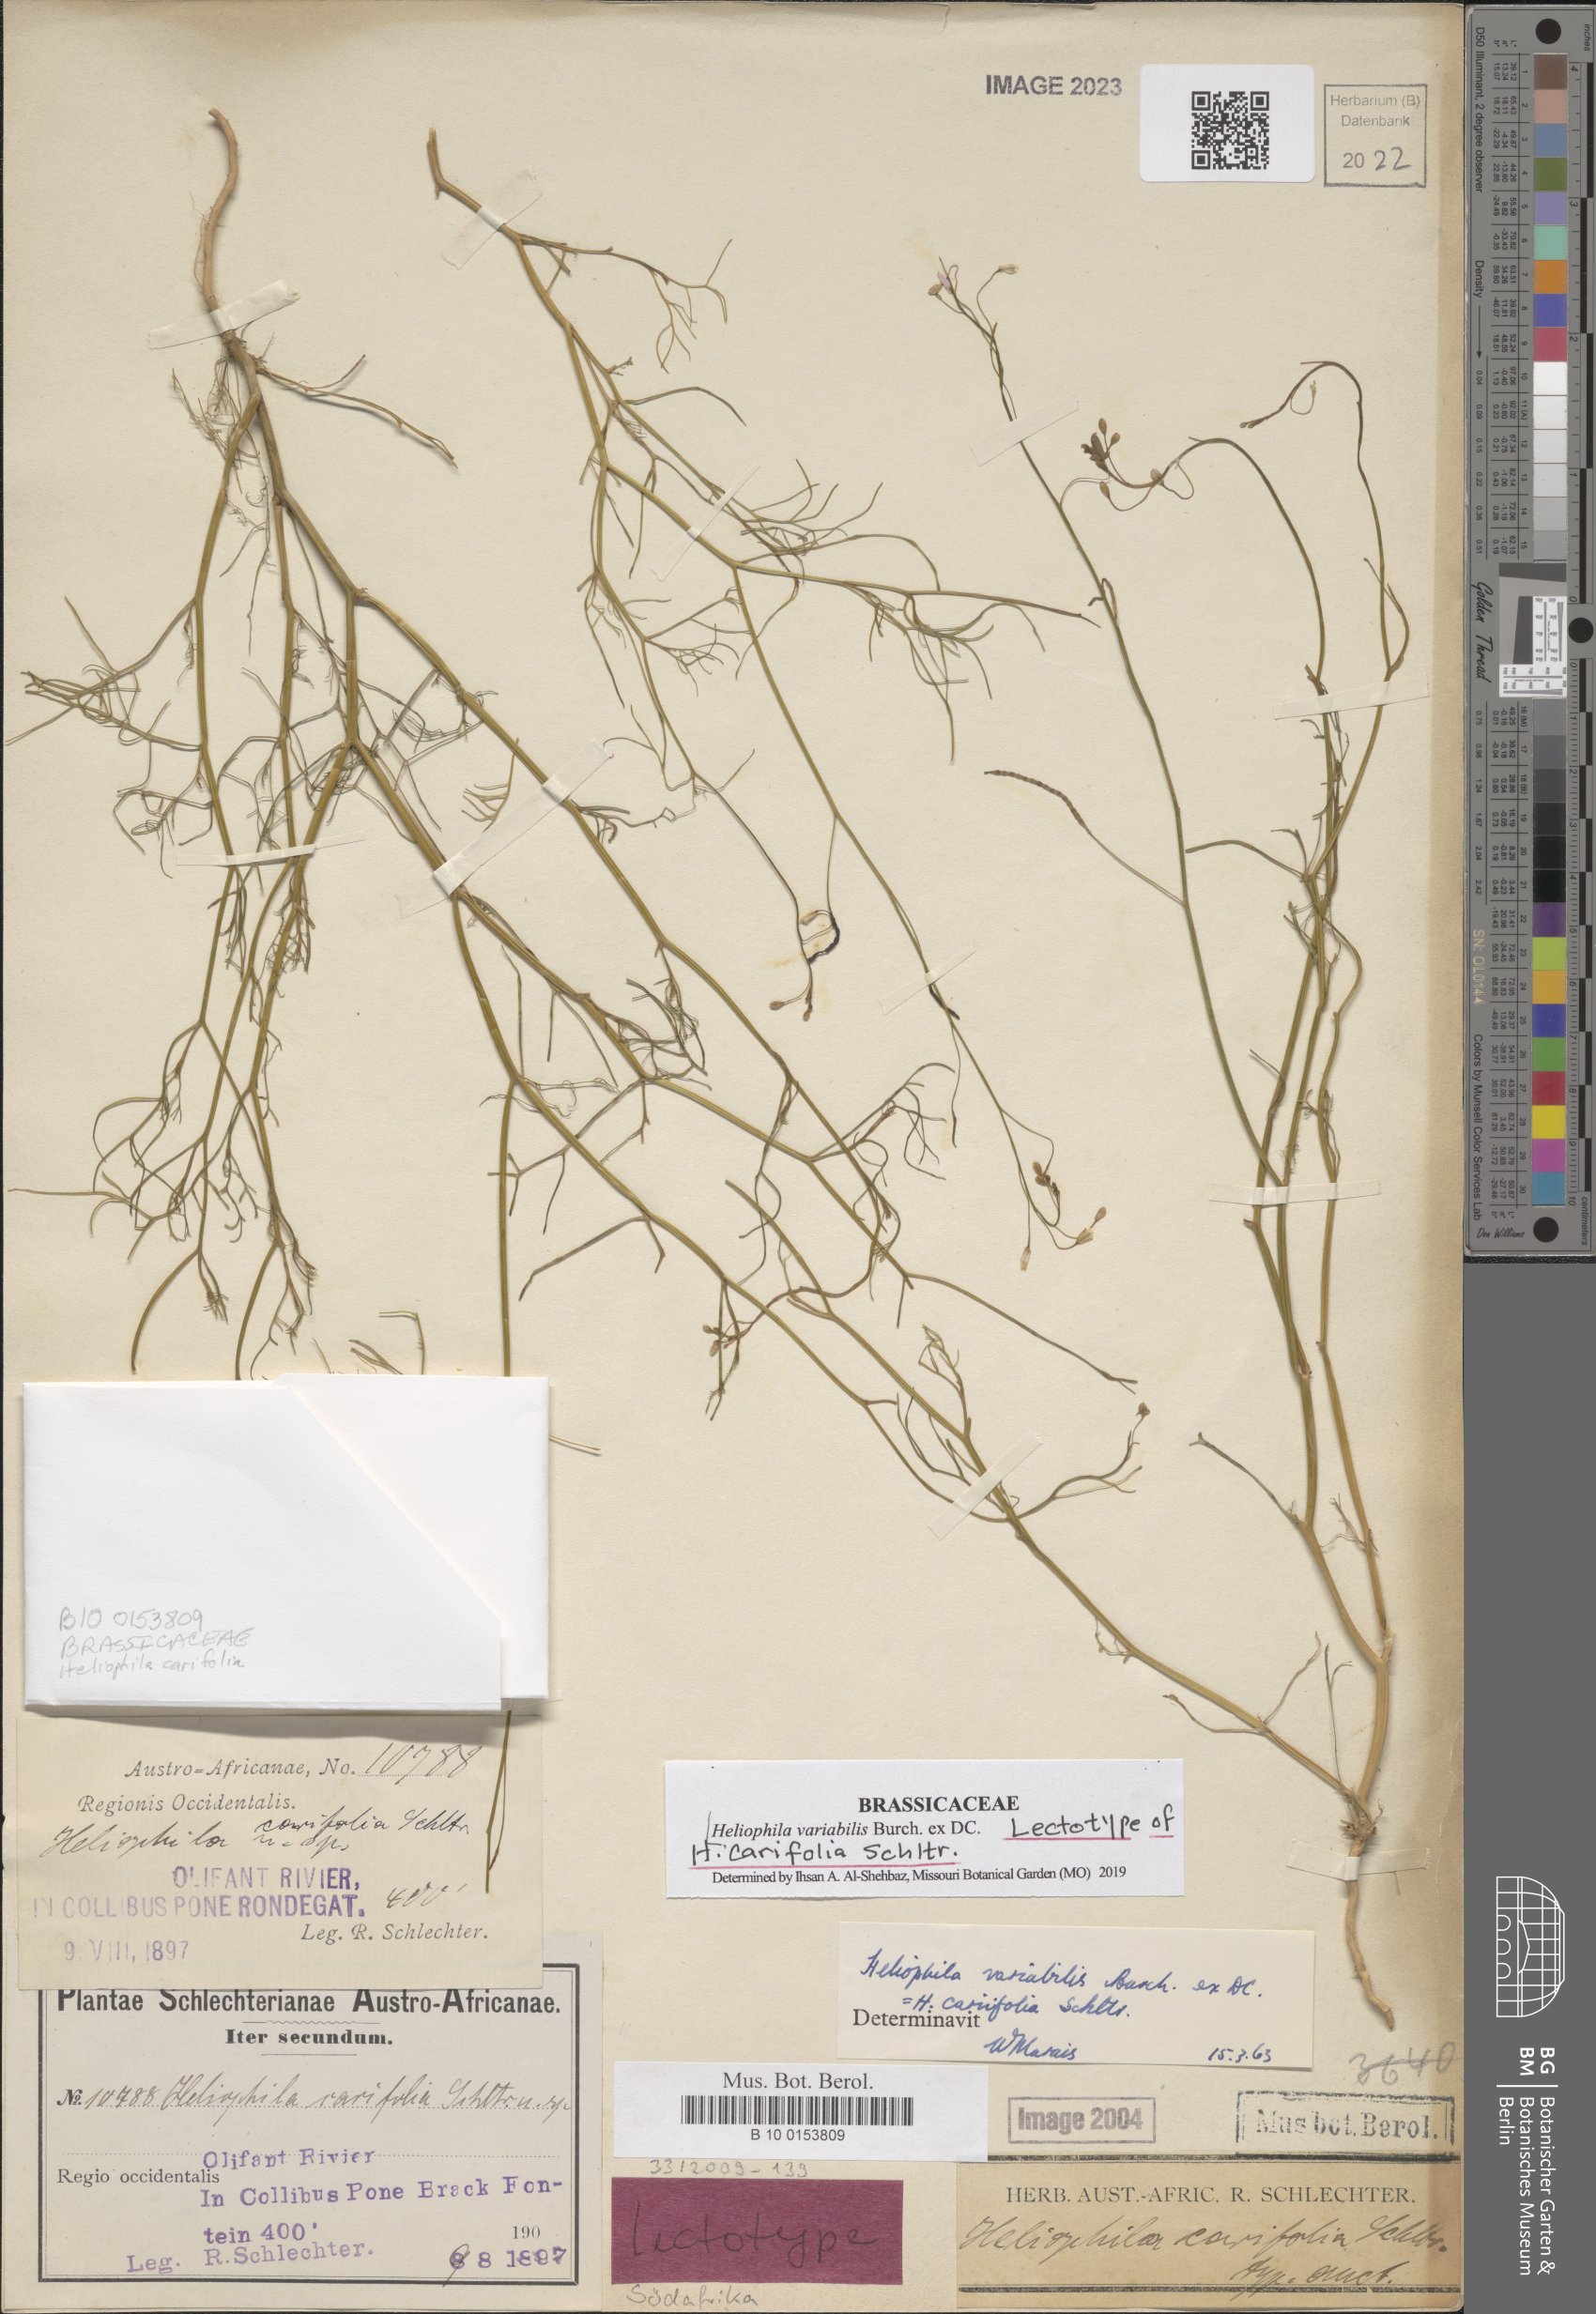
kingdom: Plantae
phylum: Tracheophyta
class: Magnoliopsida
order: Brassicales
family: Brassicaceae
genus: Heliophila
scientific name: Heliophila variabilis
